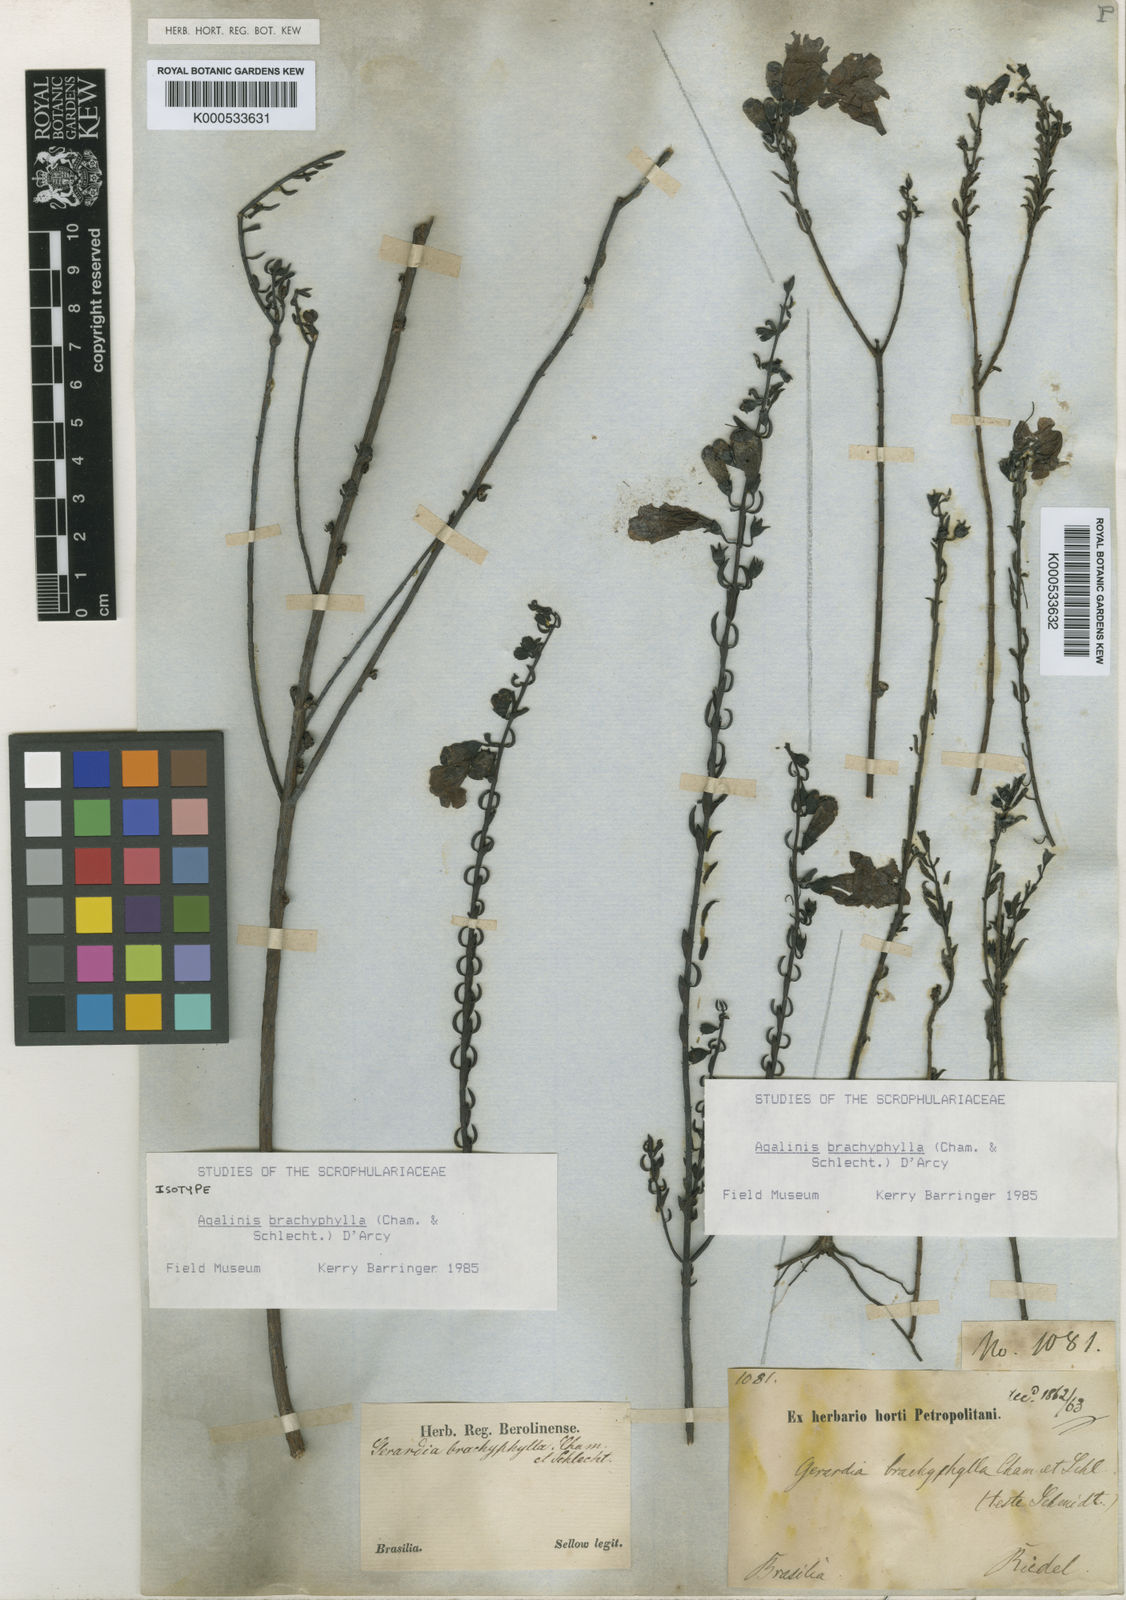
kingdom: Plantae
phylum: Tracheophyta
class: Magnoliopsida
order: Lamiales
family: Orobanchaceae
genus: Agalinis
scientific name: Agalinis brachyphylla
